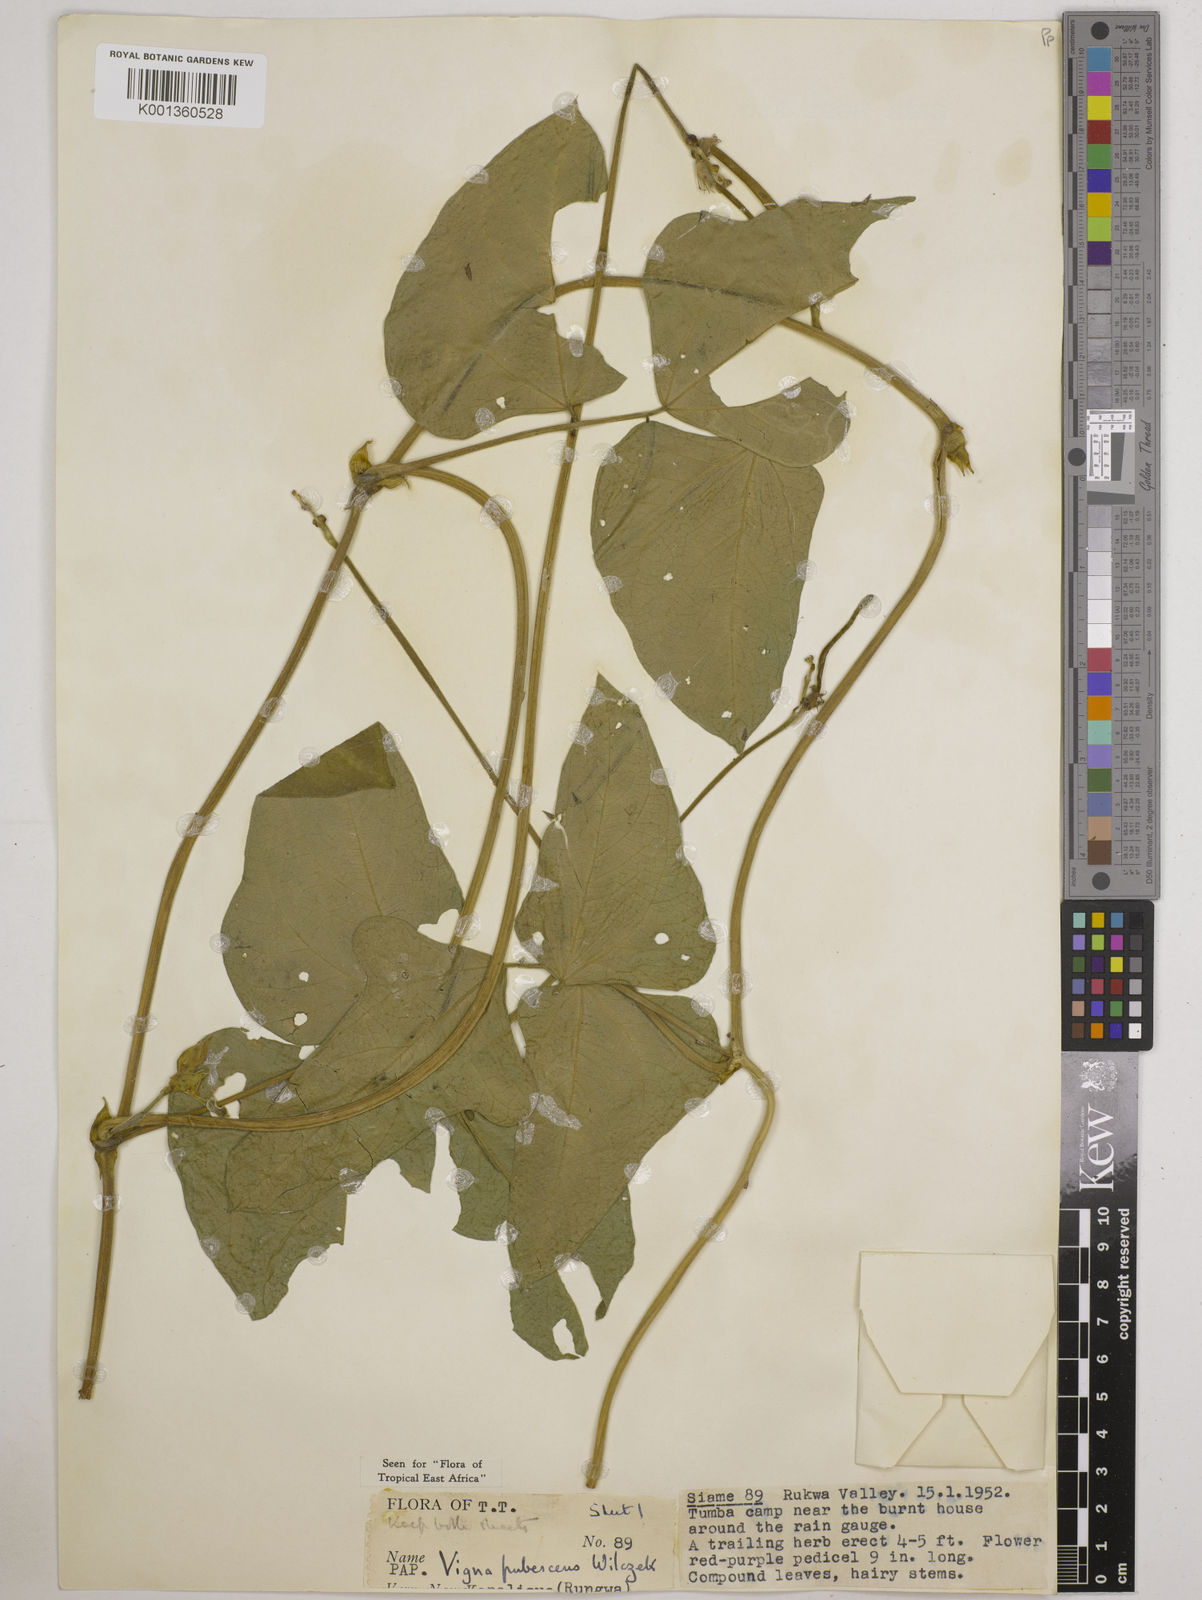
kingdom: Plantae
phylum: Tracheophyta
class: Magnoliopsida
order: Fabales
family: Fabaceae
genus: Vigna
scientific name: Vigna unguiculata
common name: Cowpea
